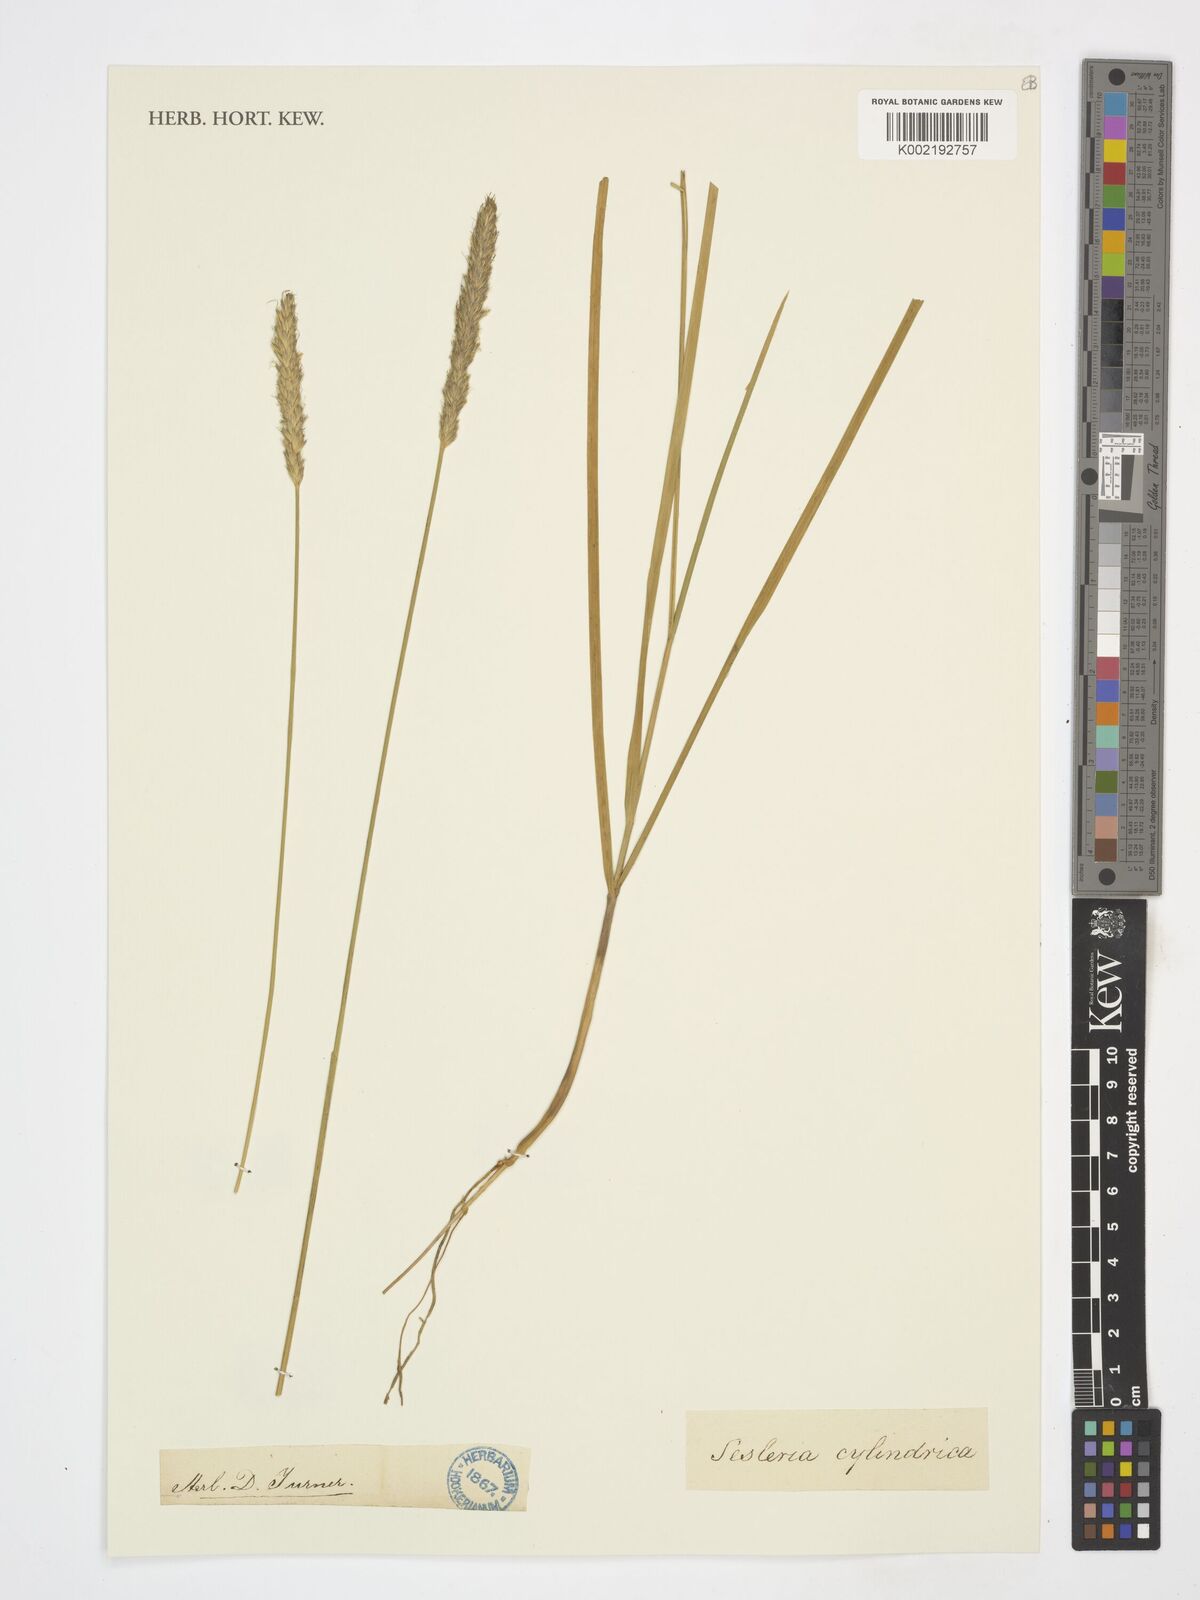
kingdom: Plantae
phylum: Tracheophyta
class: Liliopsida
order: Poales
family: Poaceae
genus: Sesleria
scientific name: Sesleria argentea
